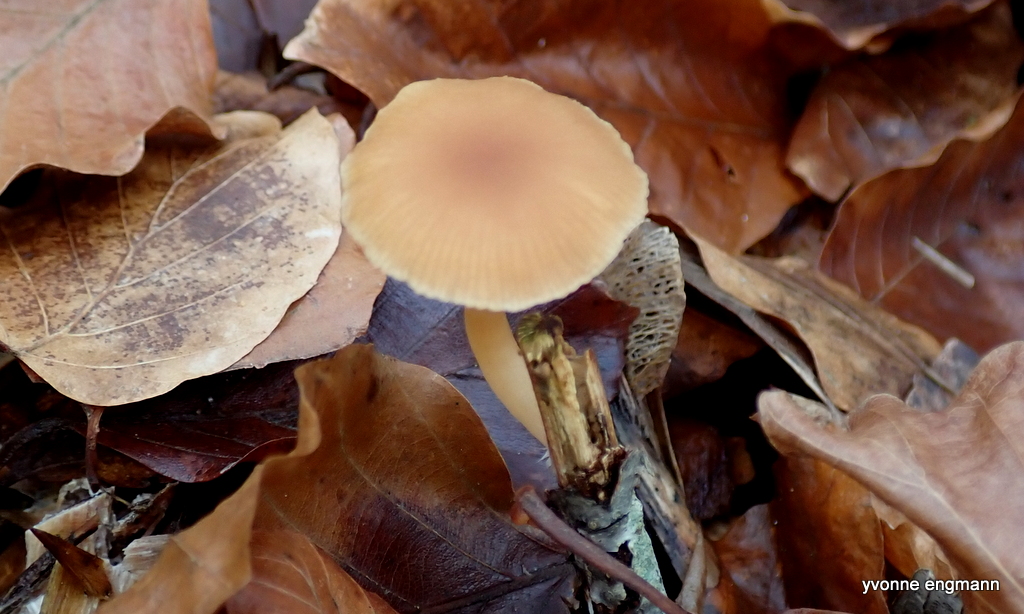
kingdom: Fungi
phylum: Basidiomycota
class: Agaricomycetes
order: Agaricales
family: Tubariaceae
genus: Tubaria
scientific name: Tubaria furfuracea
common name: kliddet fnughat
